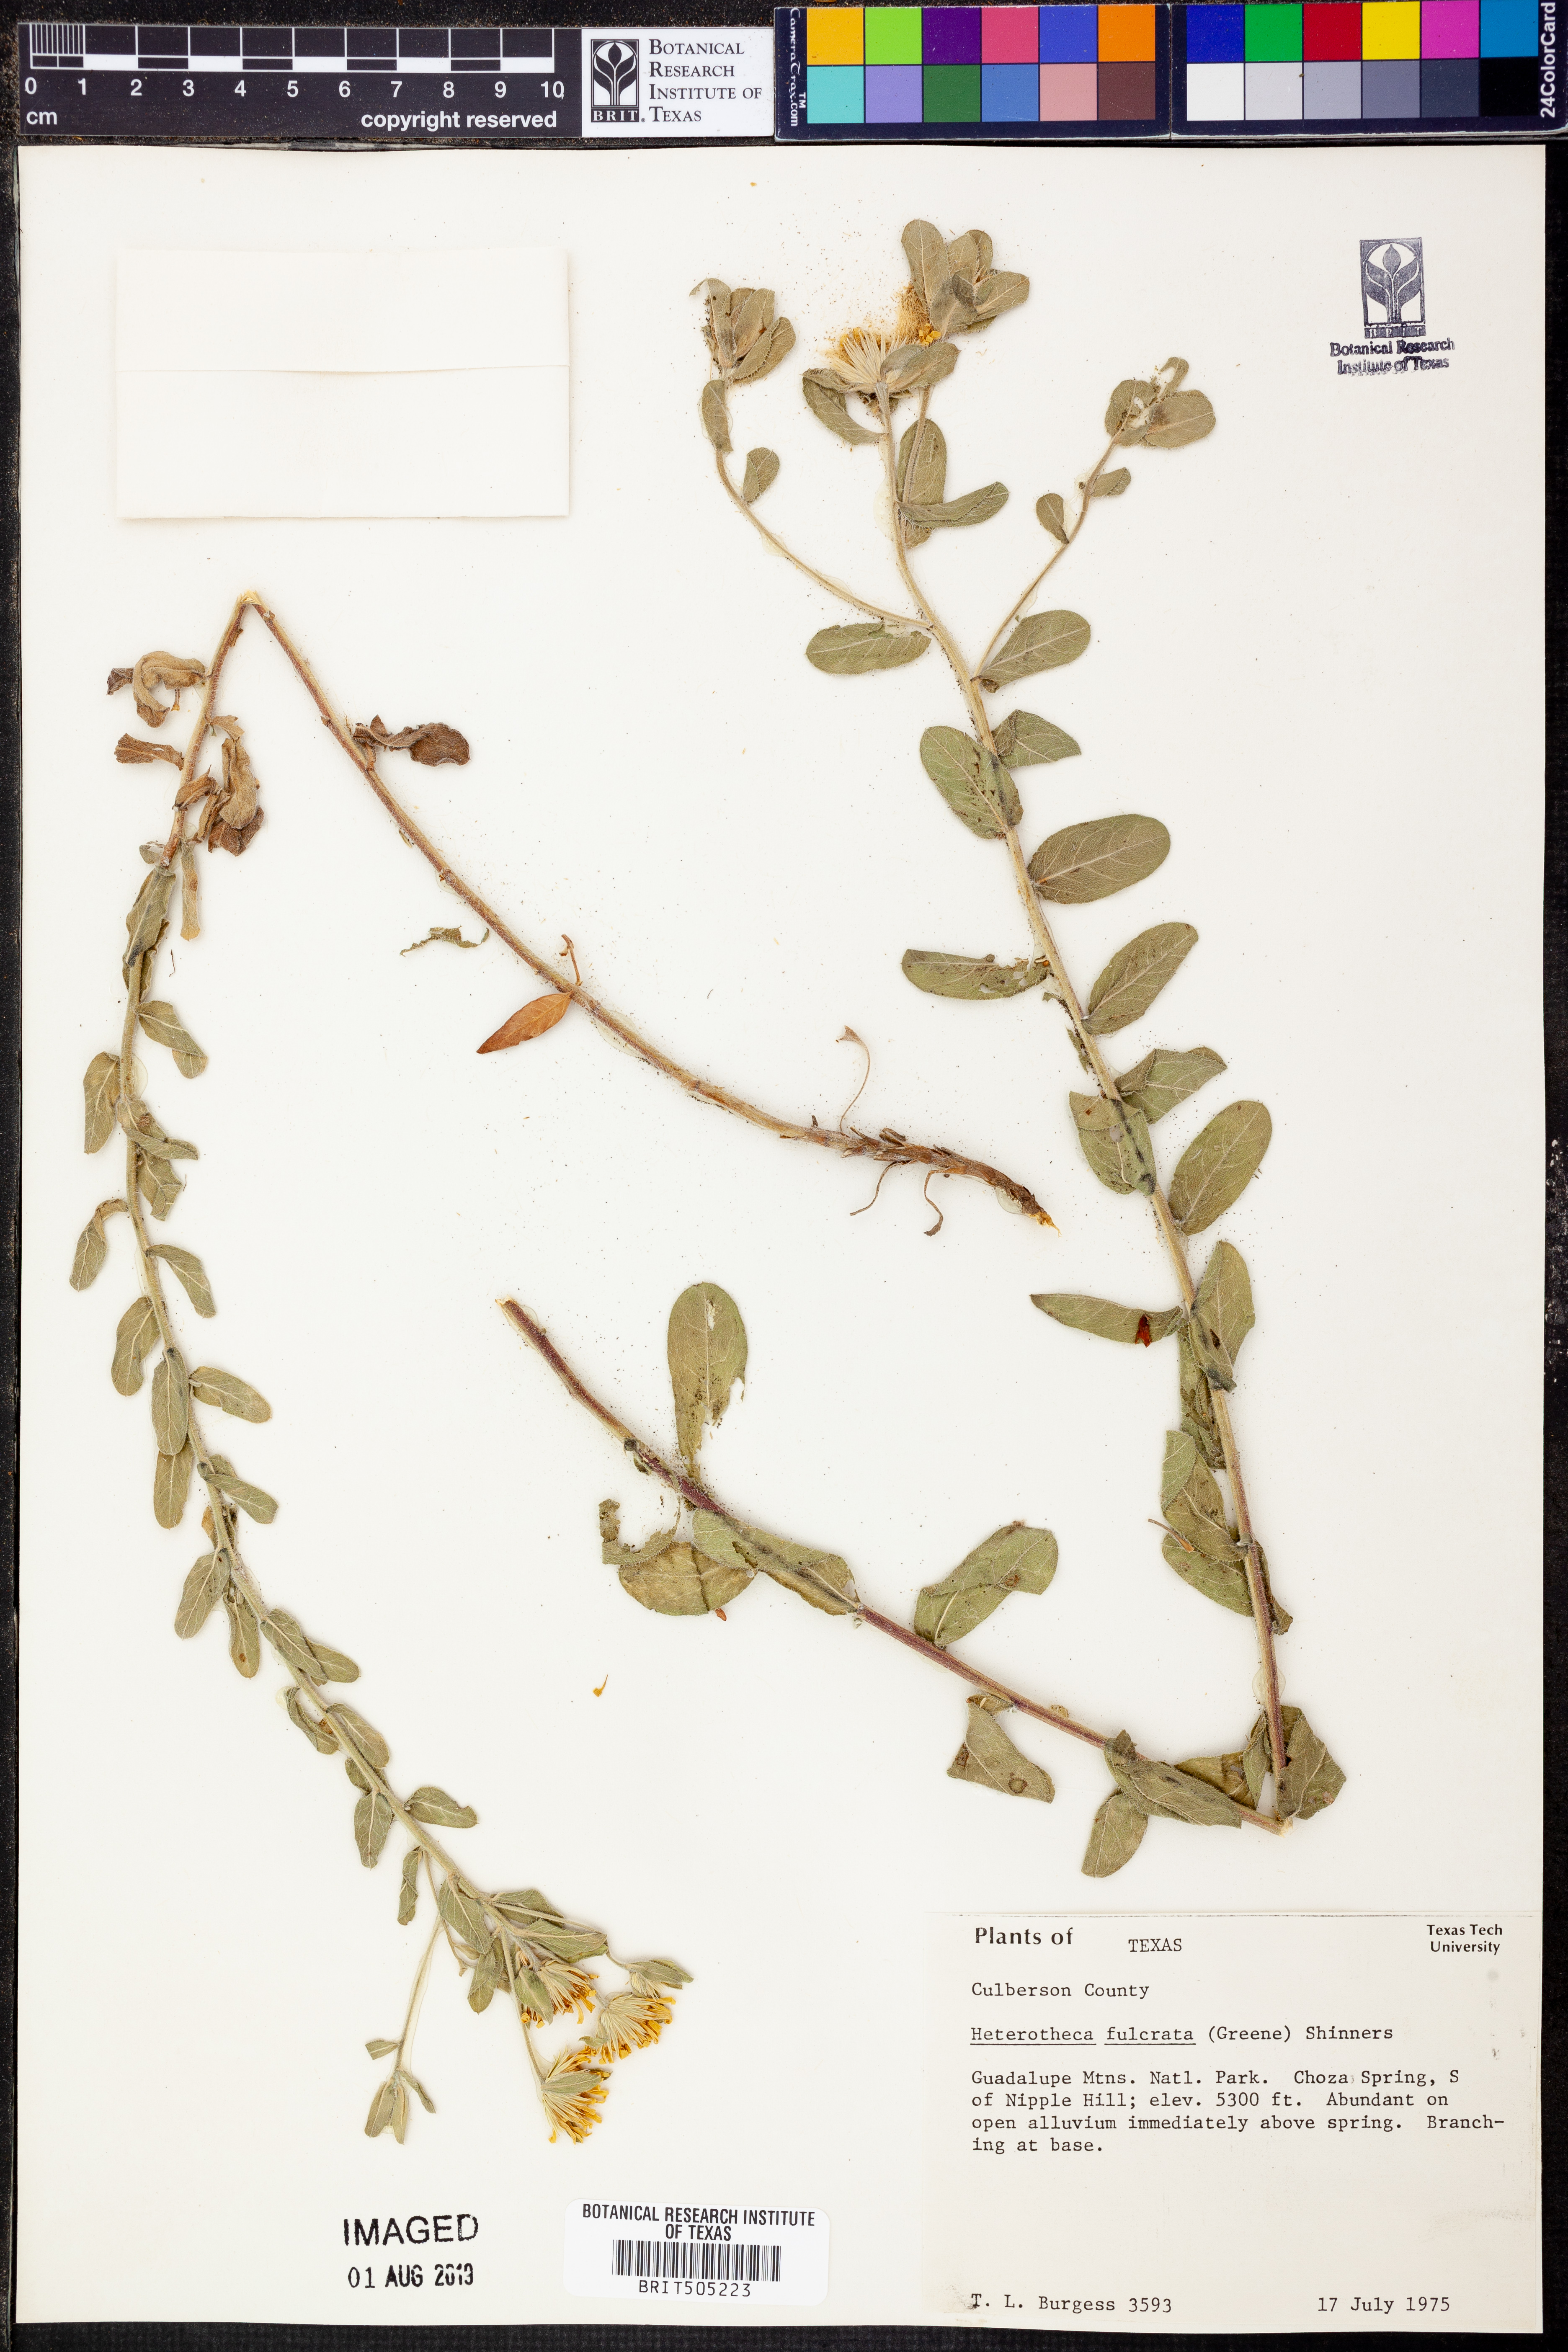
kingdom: Plantae
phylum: Tracheophyta
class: Magnoliopsida
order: Asterales
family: Asteraceae
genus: Heterotheca
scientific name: Heterotheca fulcrata
